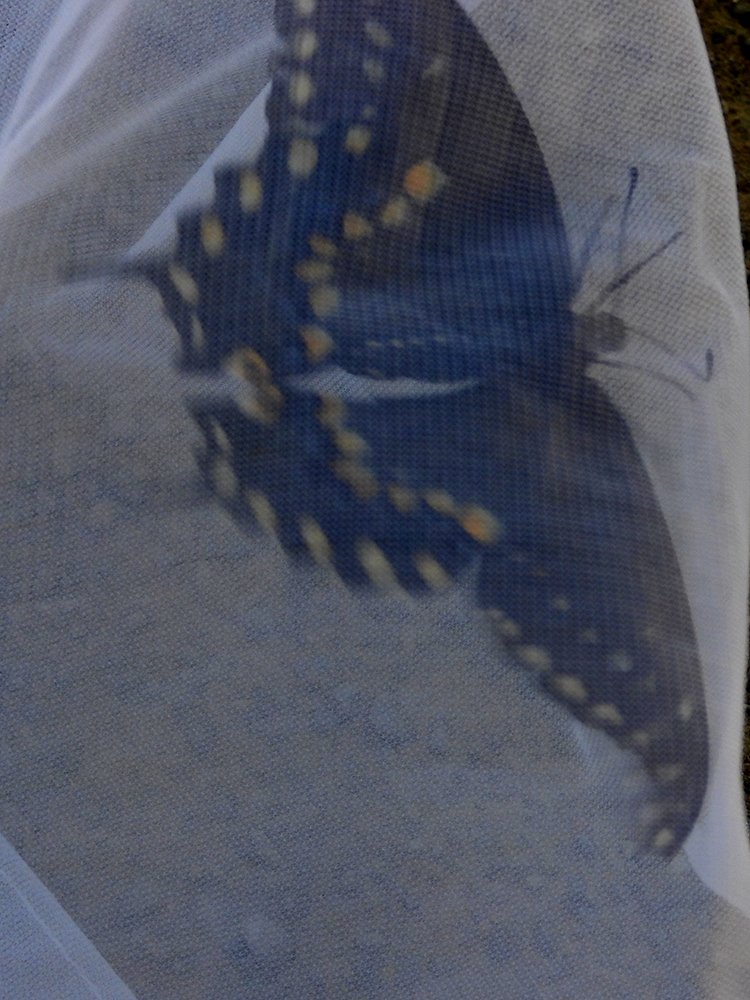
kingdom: Animalia
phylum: Arthropoda
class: Insecta
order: Lepidoptera
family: Papilionidae
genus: Papilio
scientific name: Papilio polyxenes
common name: Black Swallowtail
